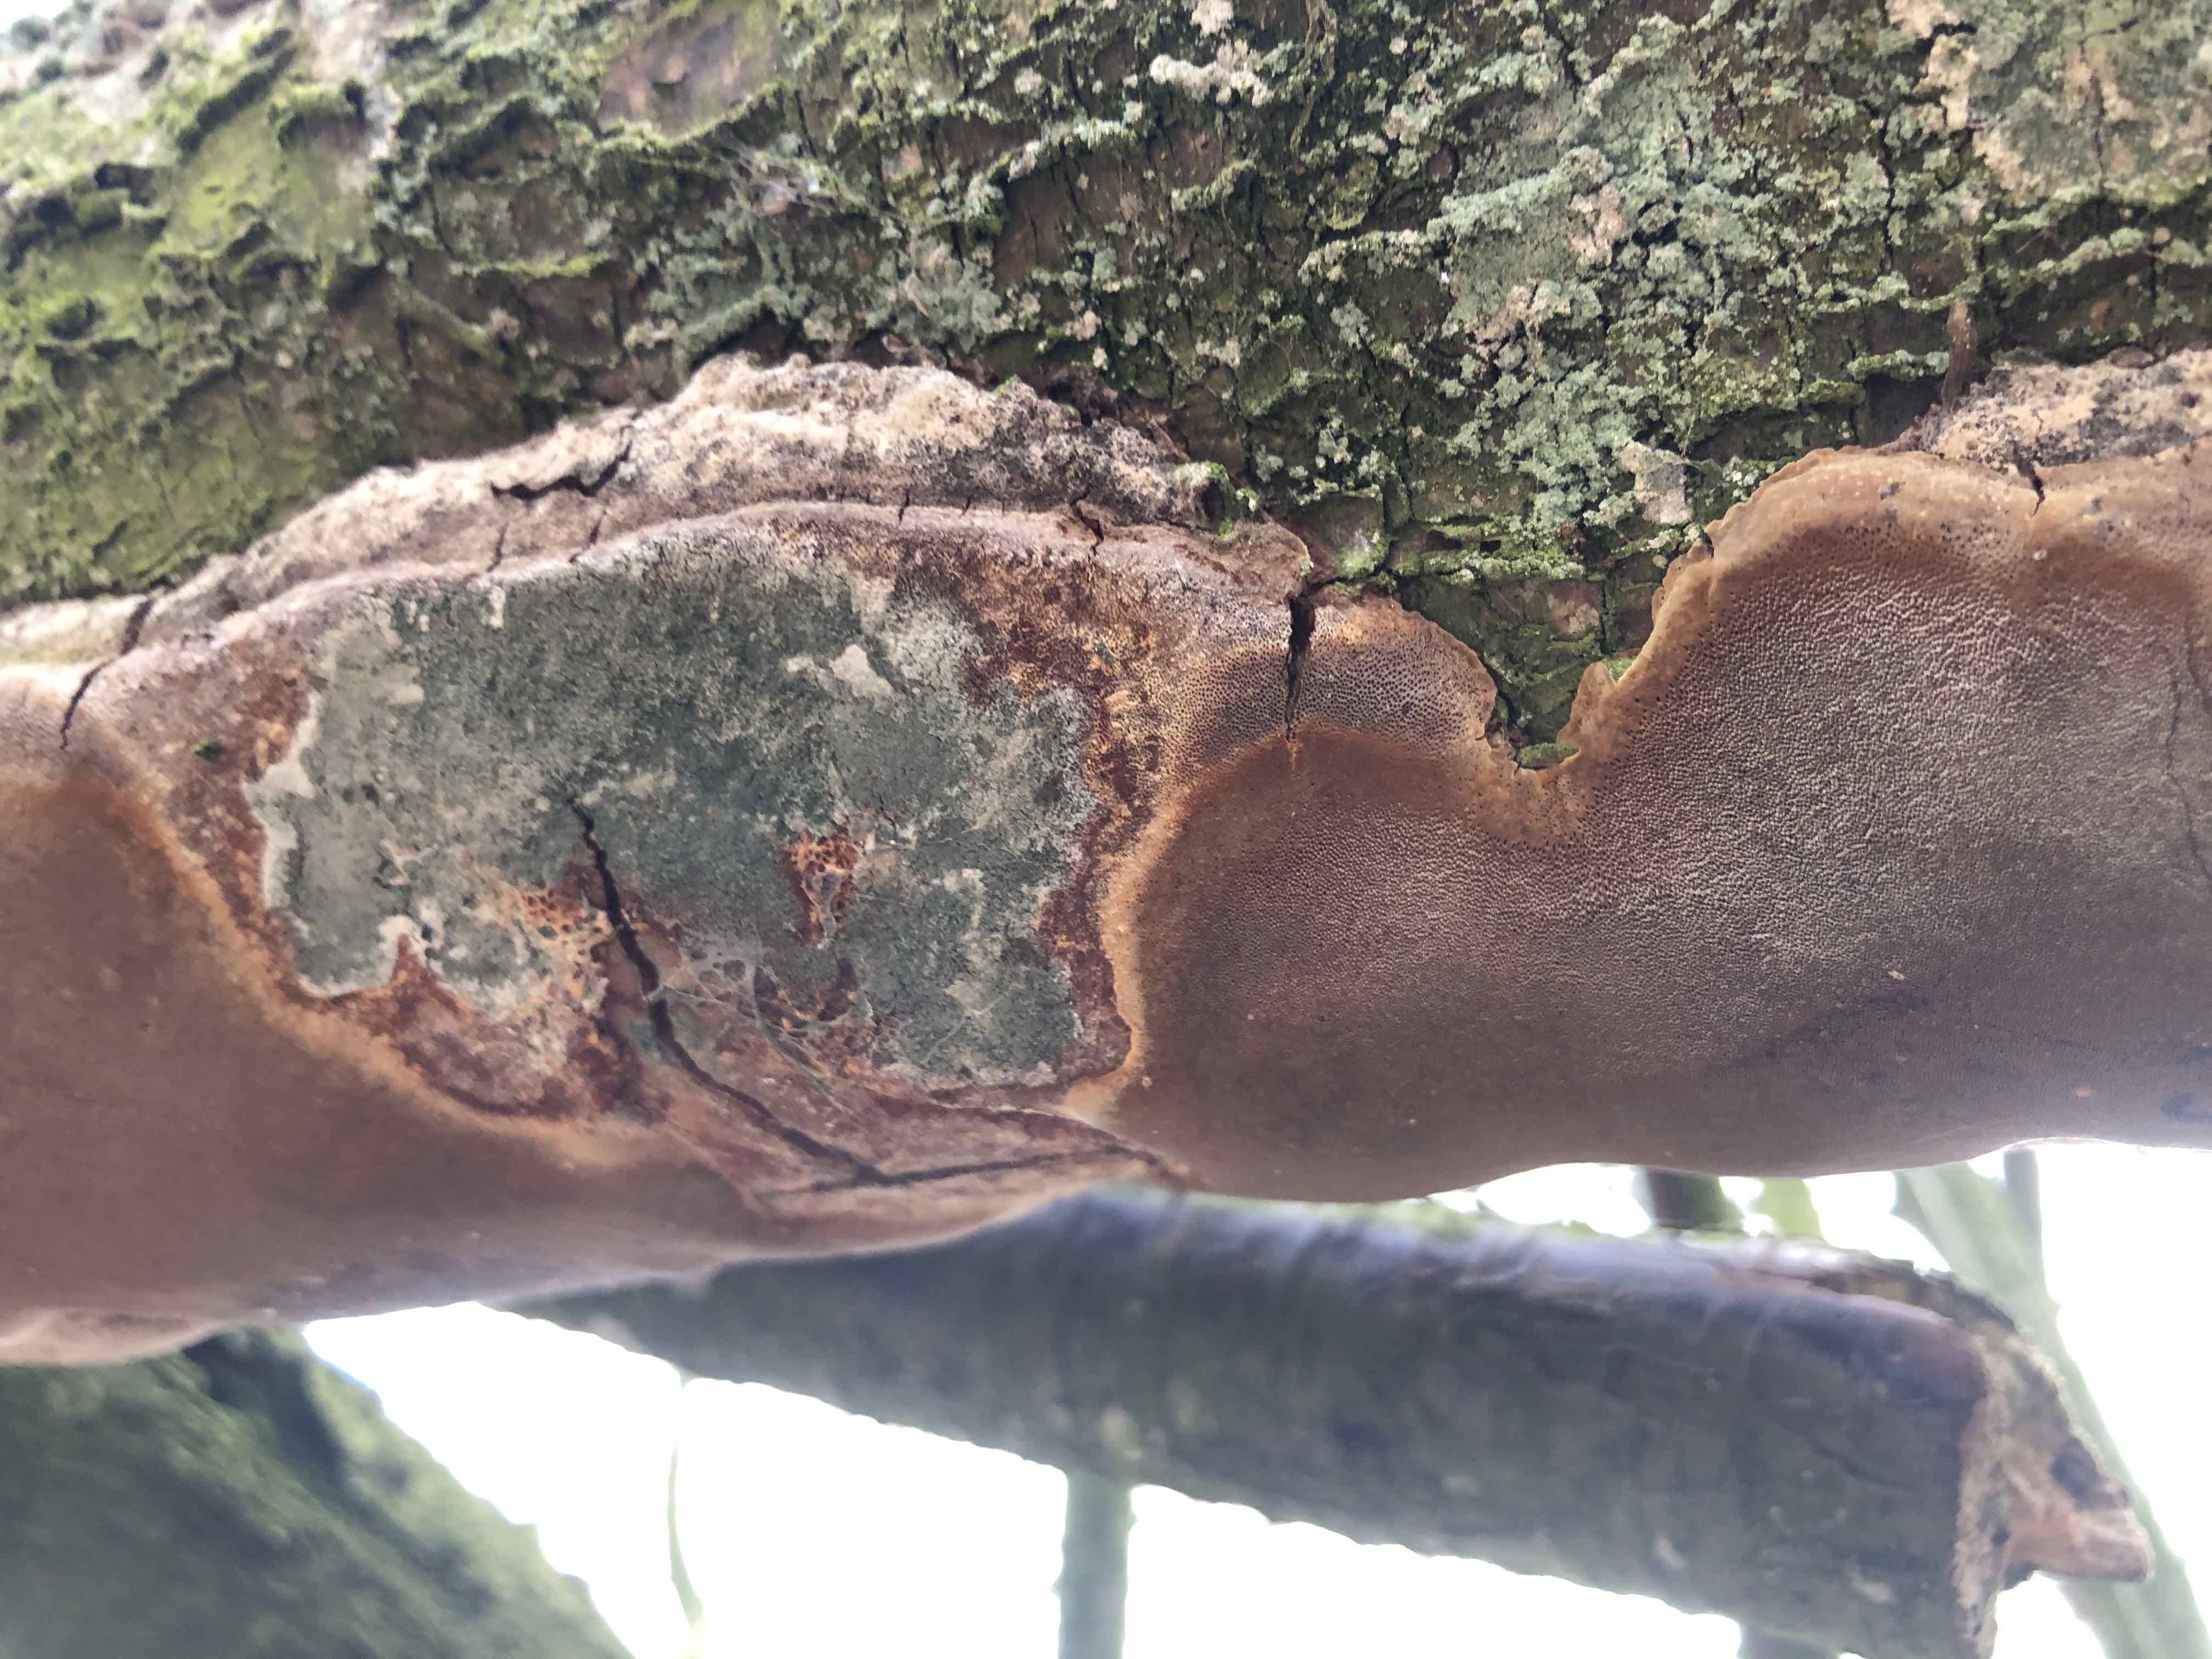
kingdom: Fungi
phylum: Basidiomycota
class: Agaricomycetes
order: Hymenochaetales
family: Hymenochaetaceae
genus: Phellinus
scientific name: Phellinus pomaceus
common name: blomme-ildporesvamp
